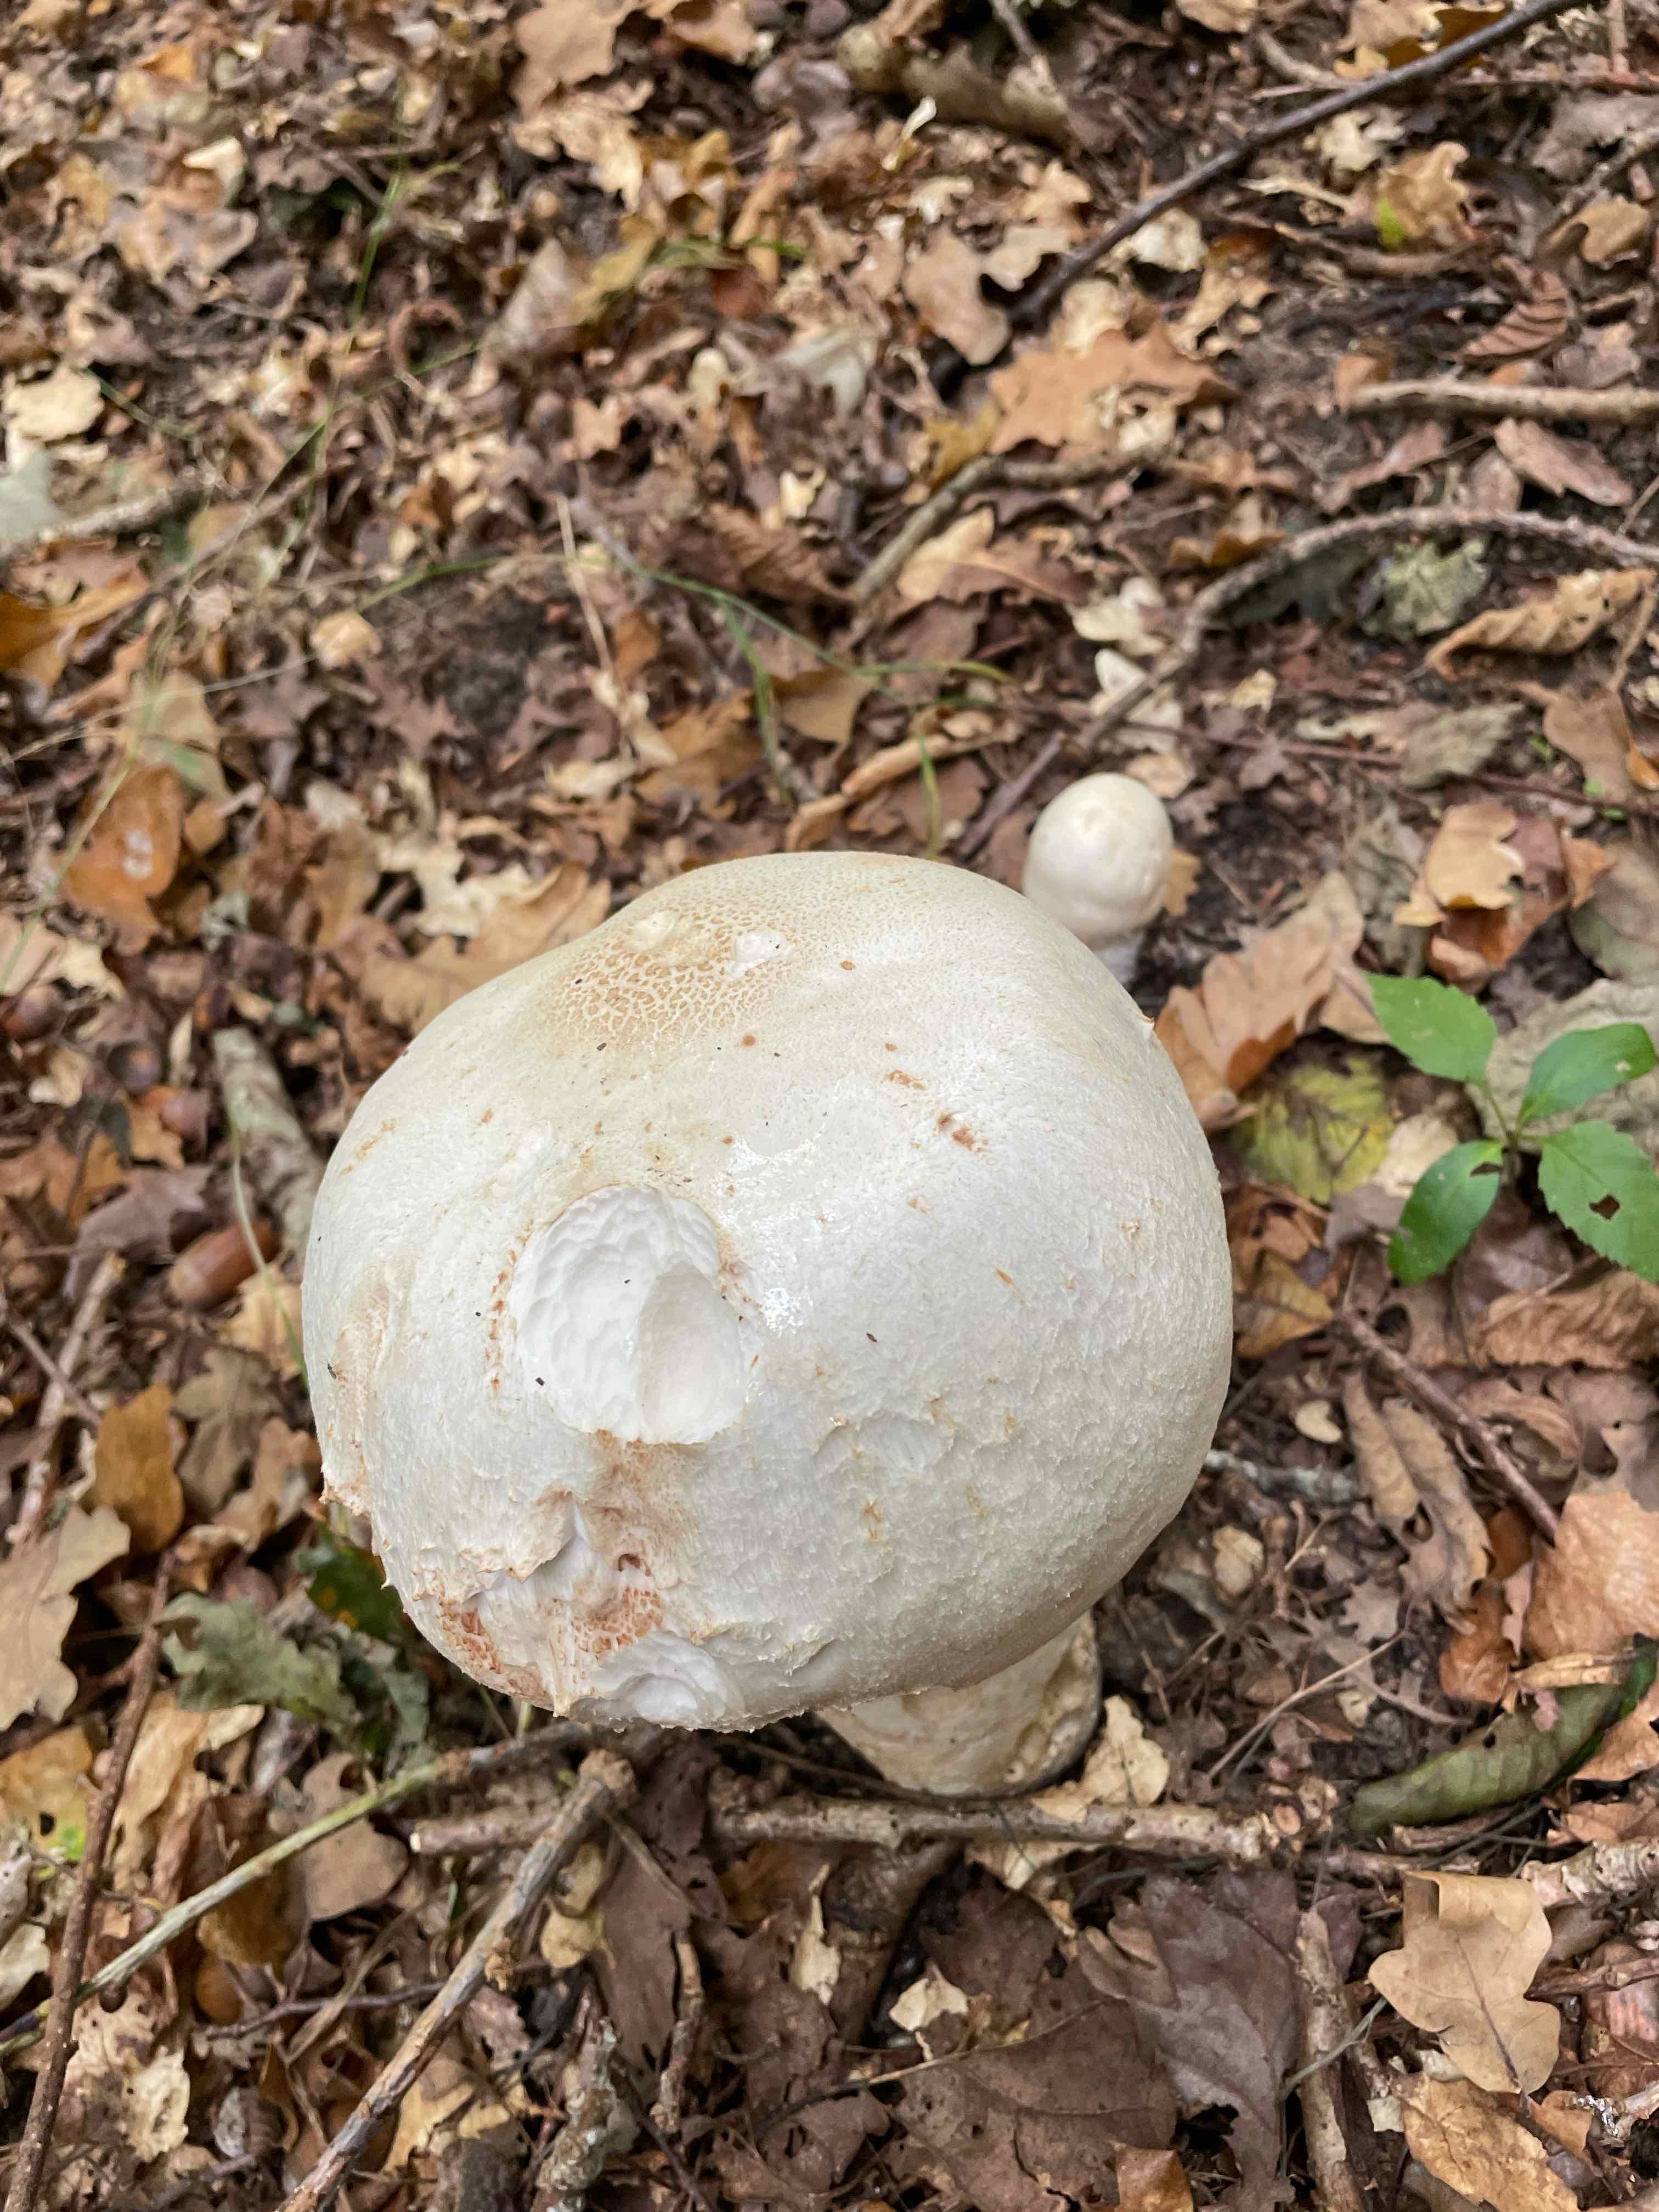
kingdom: Fungi
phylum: Basidiomycota
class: Agaricomycetes
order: Agaricales
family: Agaricaceae
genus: Agaricus
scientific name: Agaricus
